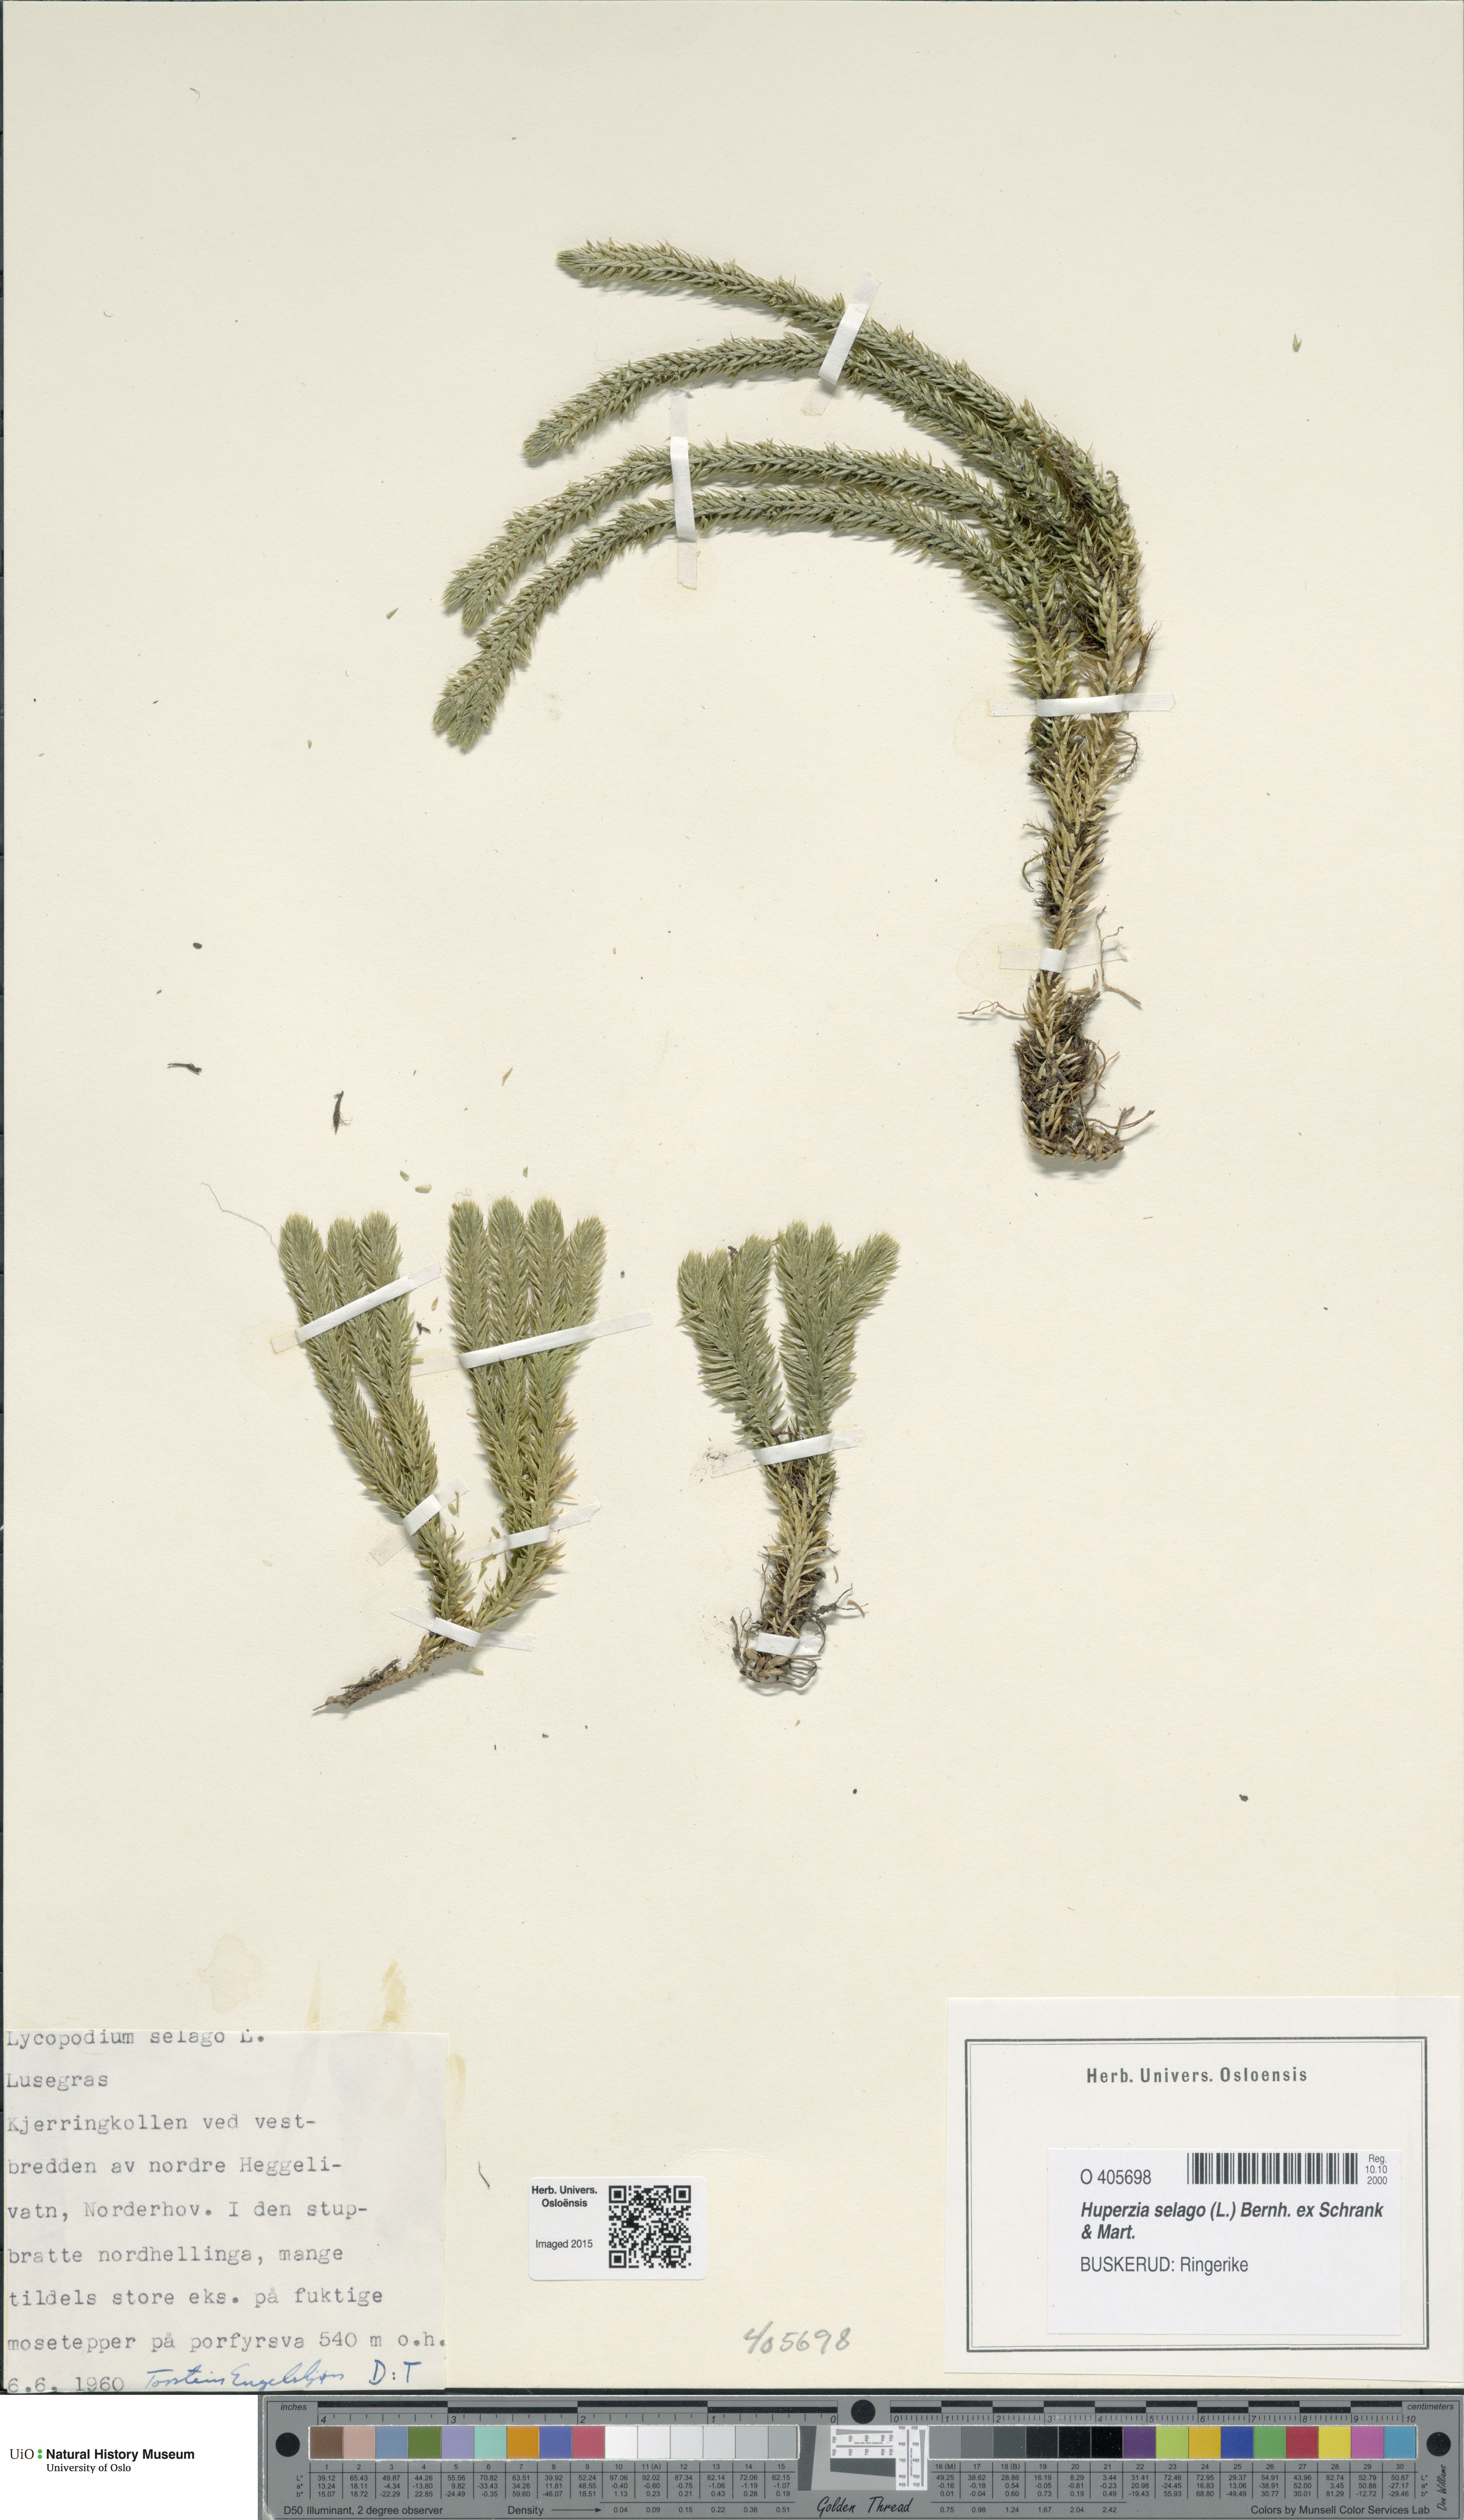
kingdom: Plantae
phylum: Tracheophyta
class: Lycopodiopsida
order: Lycopodiales
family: Lycopodiaceae
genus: Huperzia
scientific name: Huperzia selago
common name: Northern firmoss
